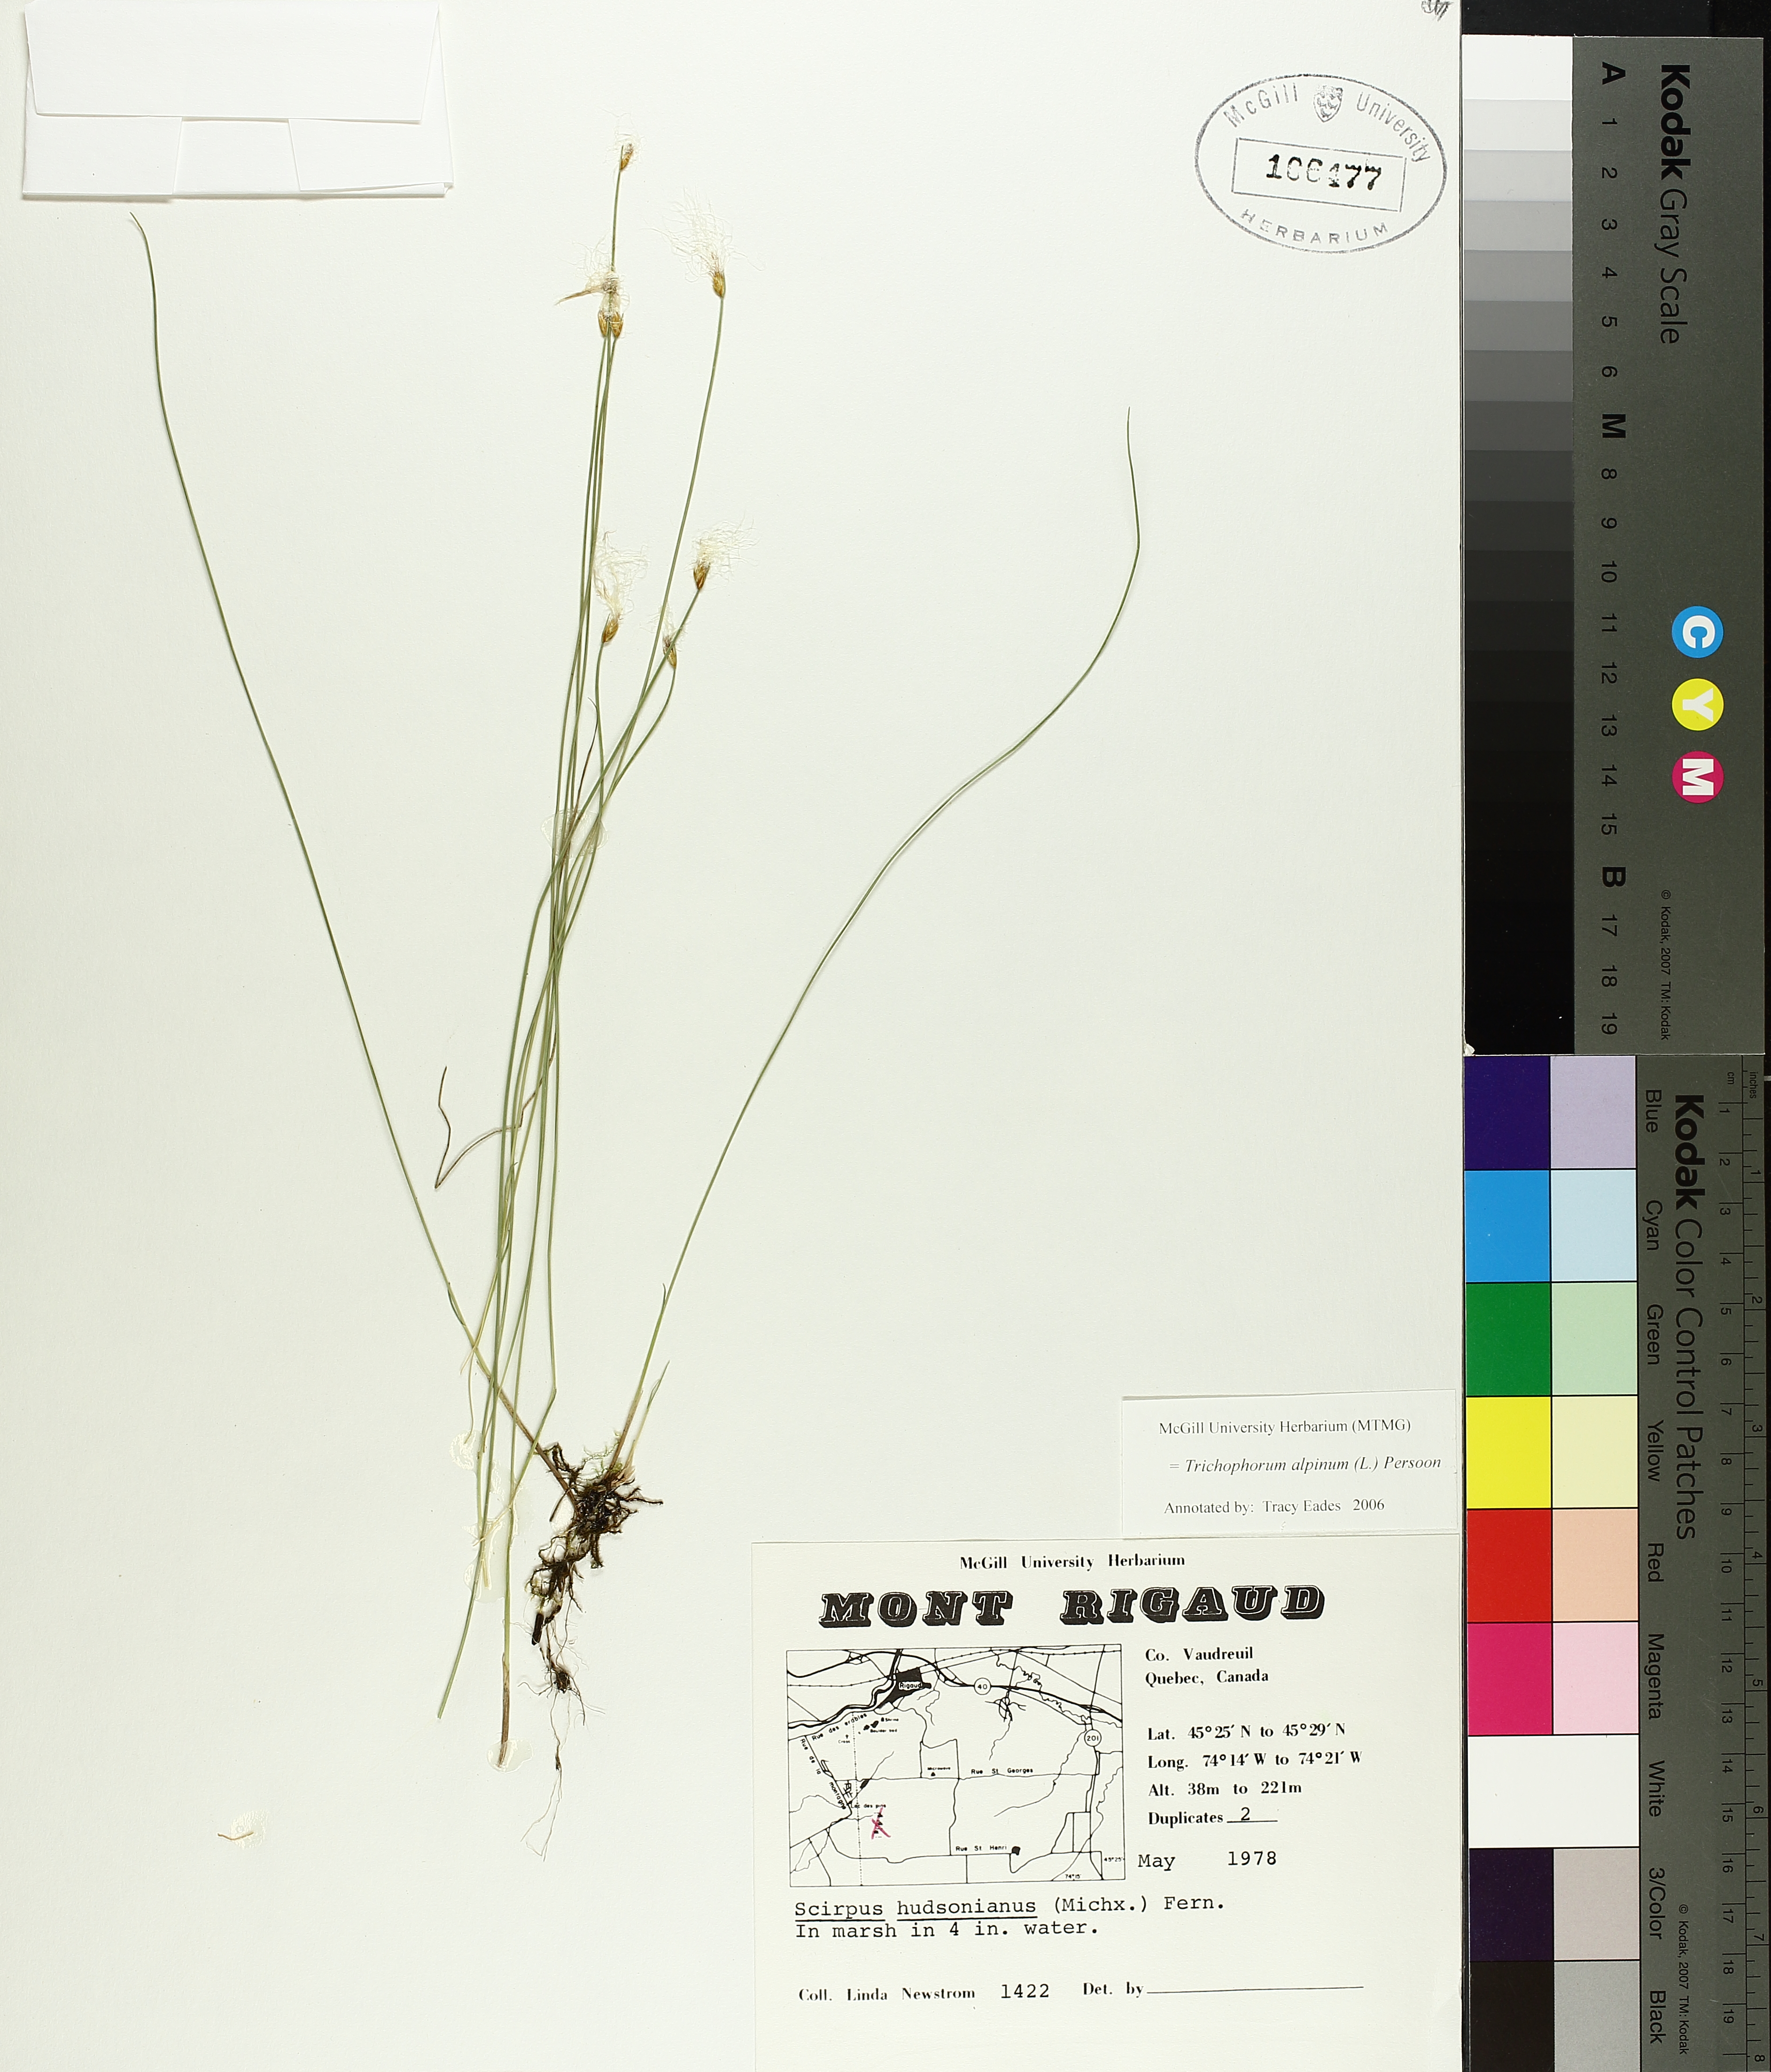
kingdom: Plantae
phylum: Tracheophyta
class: Liliopsida
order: Poales
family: Cyperaceae
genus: Trichophorum
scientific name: Trichophorum alpinum
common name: Alpine bulrush
